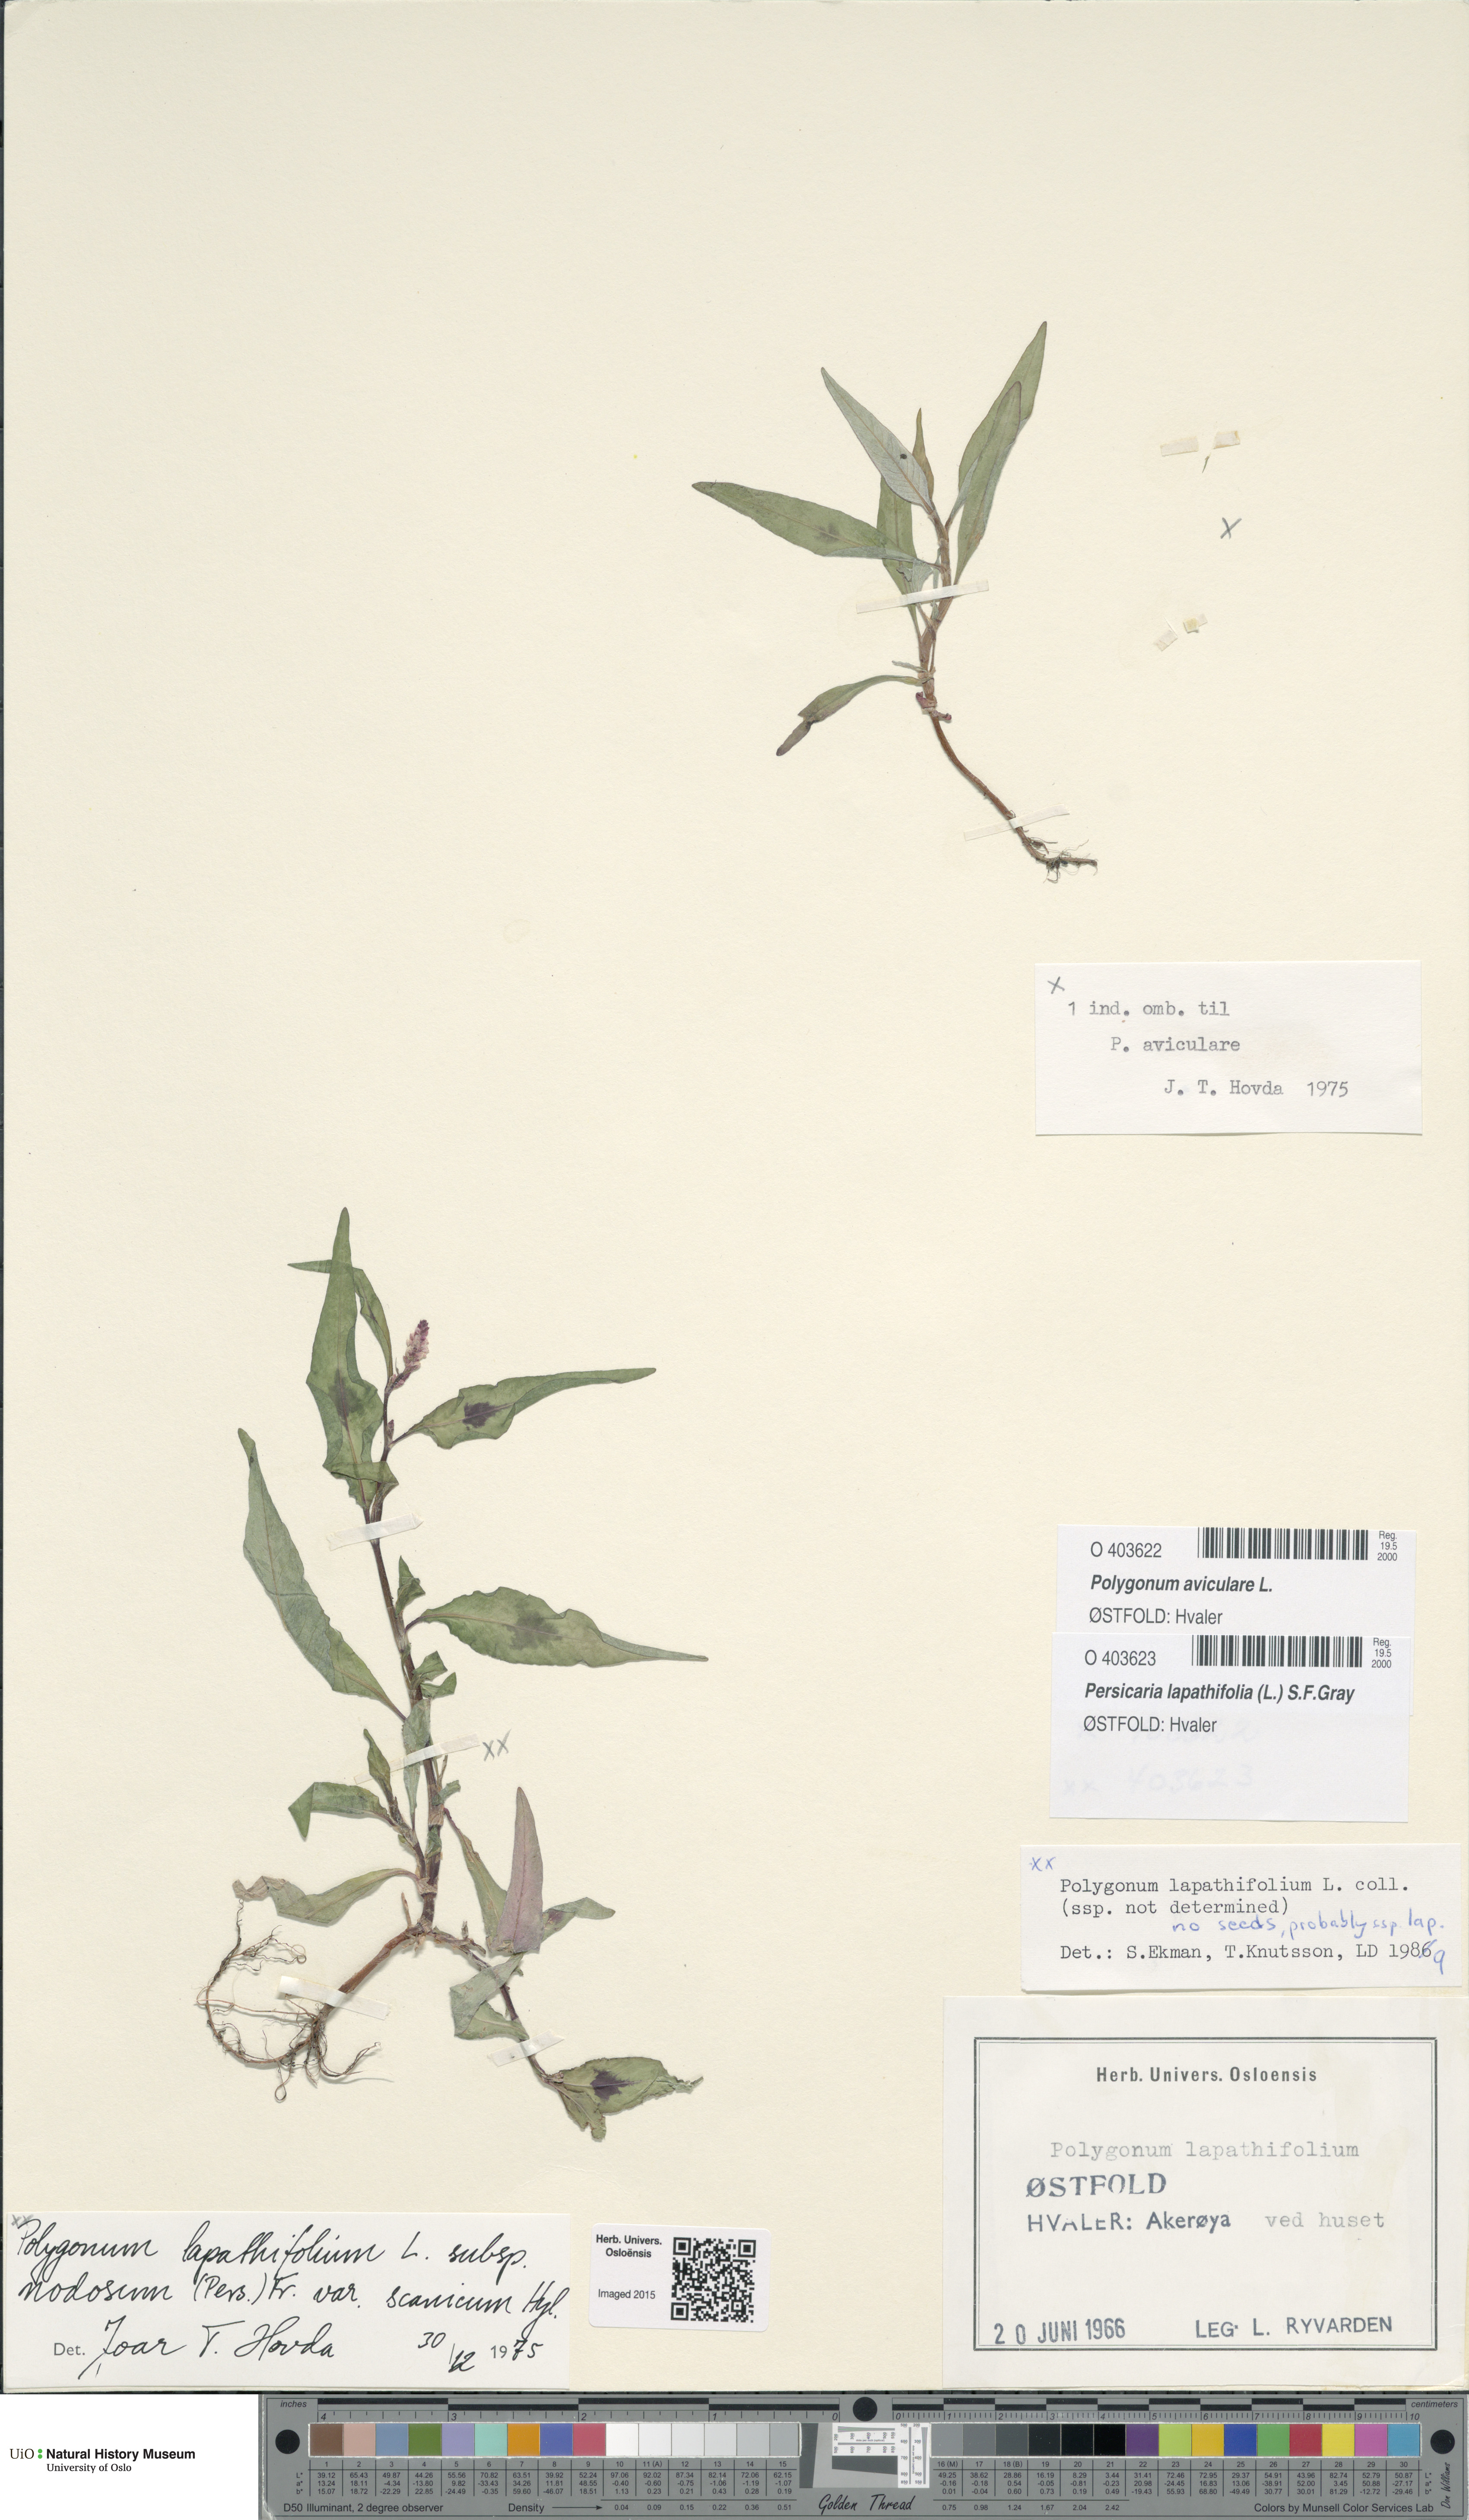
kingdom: Plantae
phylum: Tracheophyta
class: Magnoliopsida
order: Caryophyllales
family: Polygonaceae
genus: Polygonum
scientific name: Polygonum aviculare
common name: Prostrate knotweed
